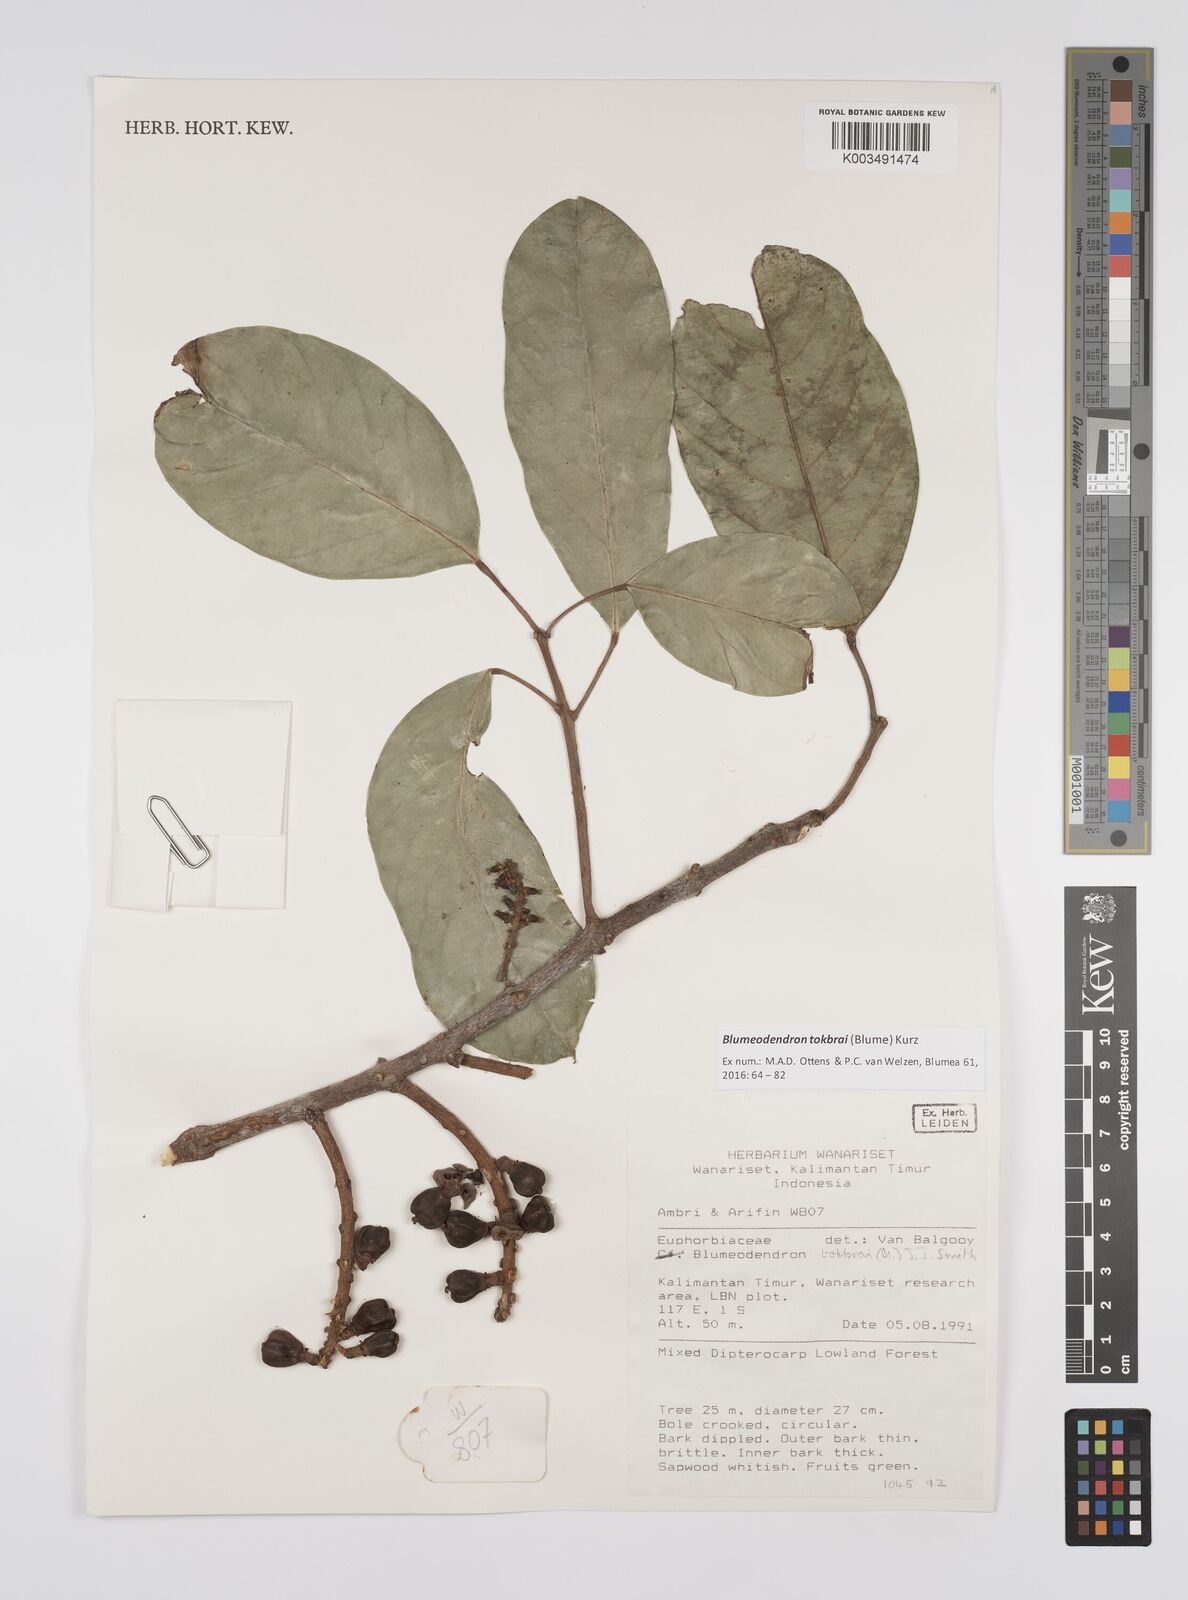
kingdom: Plantae
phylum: Tracheophyta
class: Magnoliopsida
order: Malpighiales
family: Euphorbiaceae
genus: Blumeodendron
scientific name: Blumeodendron tokbrai
